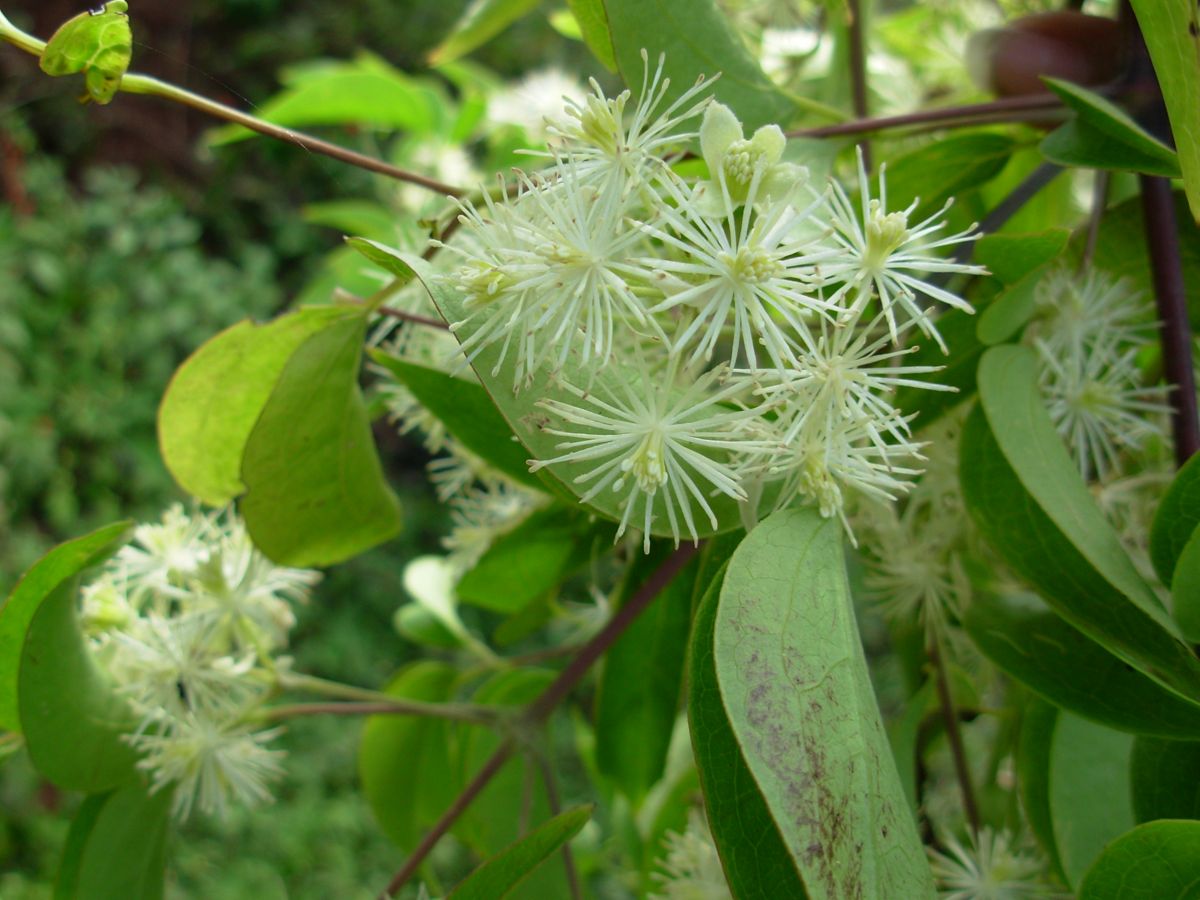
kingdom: Plantae
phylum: Tracheophyta
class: Magnoliopsida
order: Ranunculales
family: Ranunculaceae
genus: Clematis
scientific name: Clematis dioica
